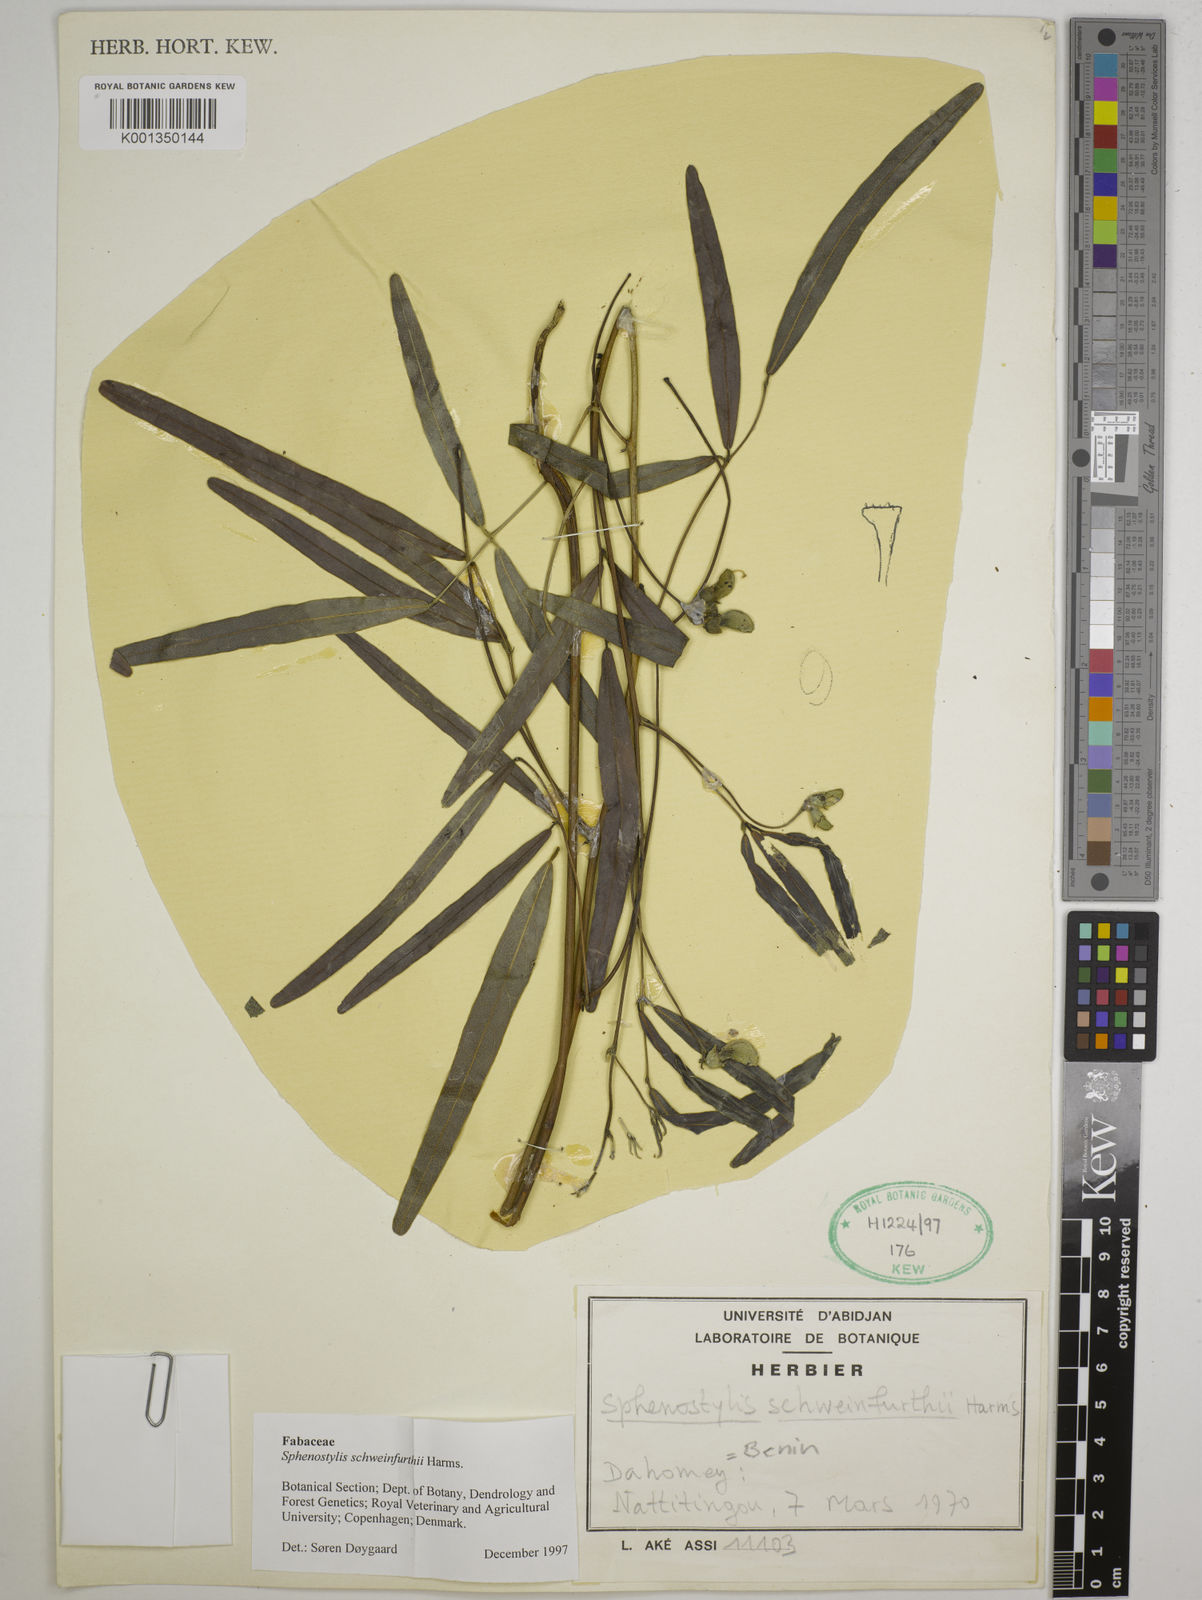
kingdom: Plantae
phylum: Tracheophyta
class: Magnoliopsida
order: Fabales
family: Fabaceae
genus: Sphenostylis
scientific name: Sphenostylis schweinfurthii
